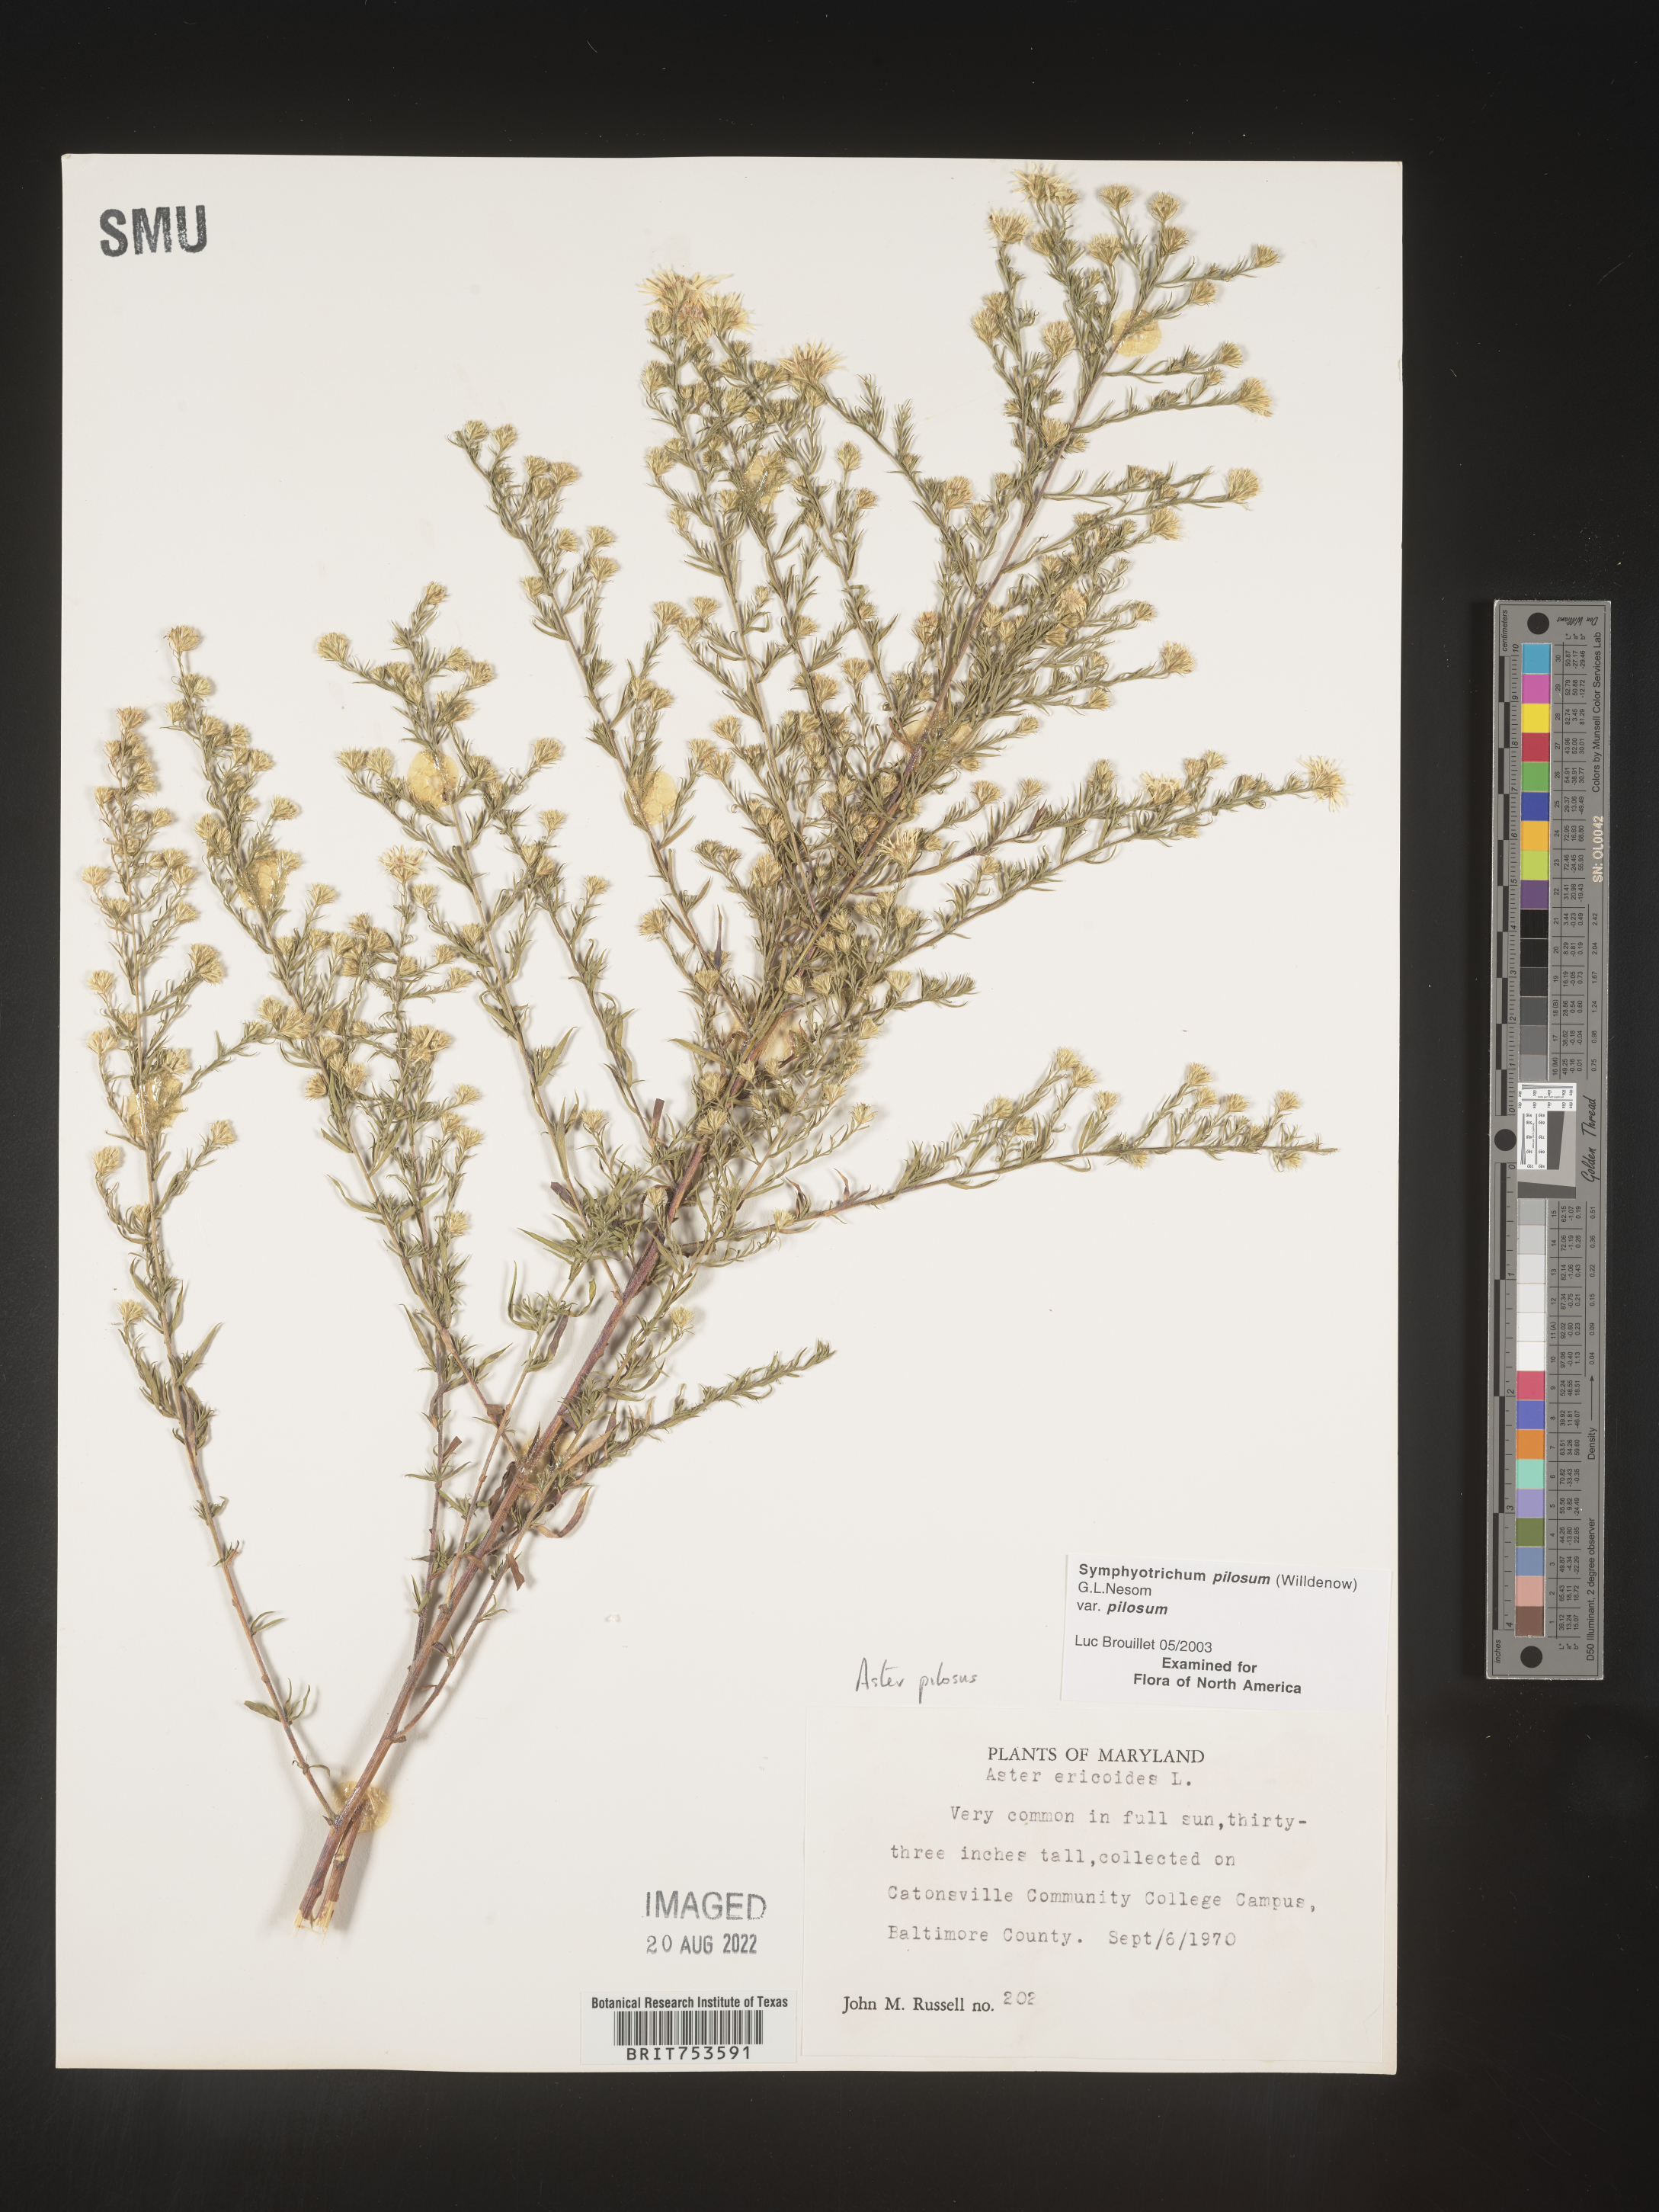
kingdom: Plantae
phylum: Tracheophyta
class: Magnoliopsida
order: Asterales
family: Asteraceae
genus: Symphyotrichum
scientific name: Symphyotrichum pilosum
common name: Awl aster
